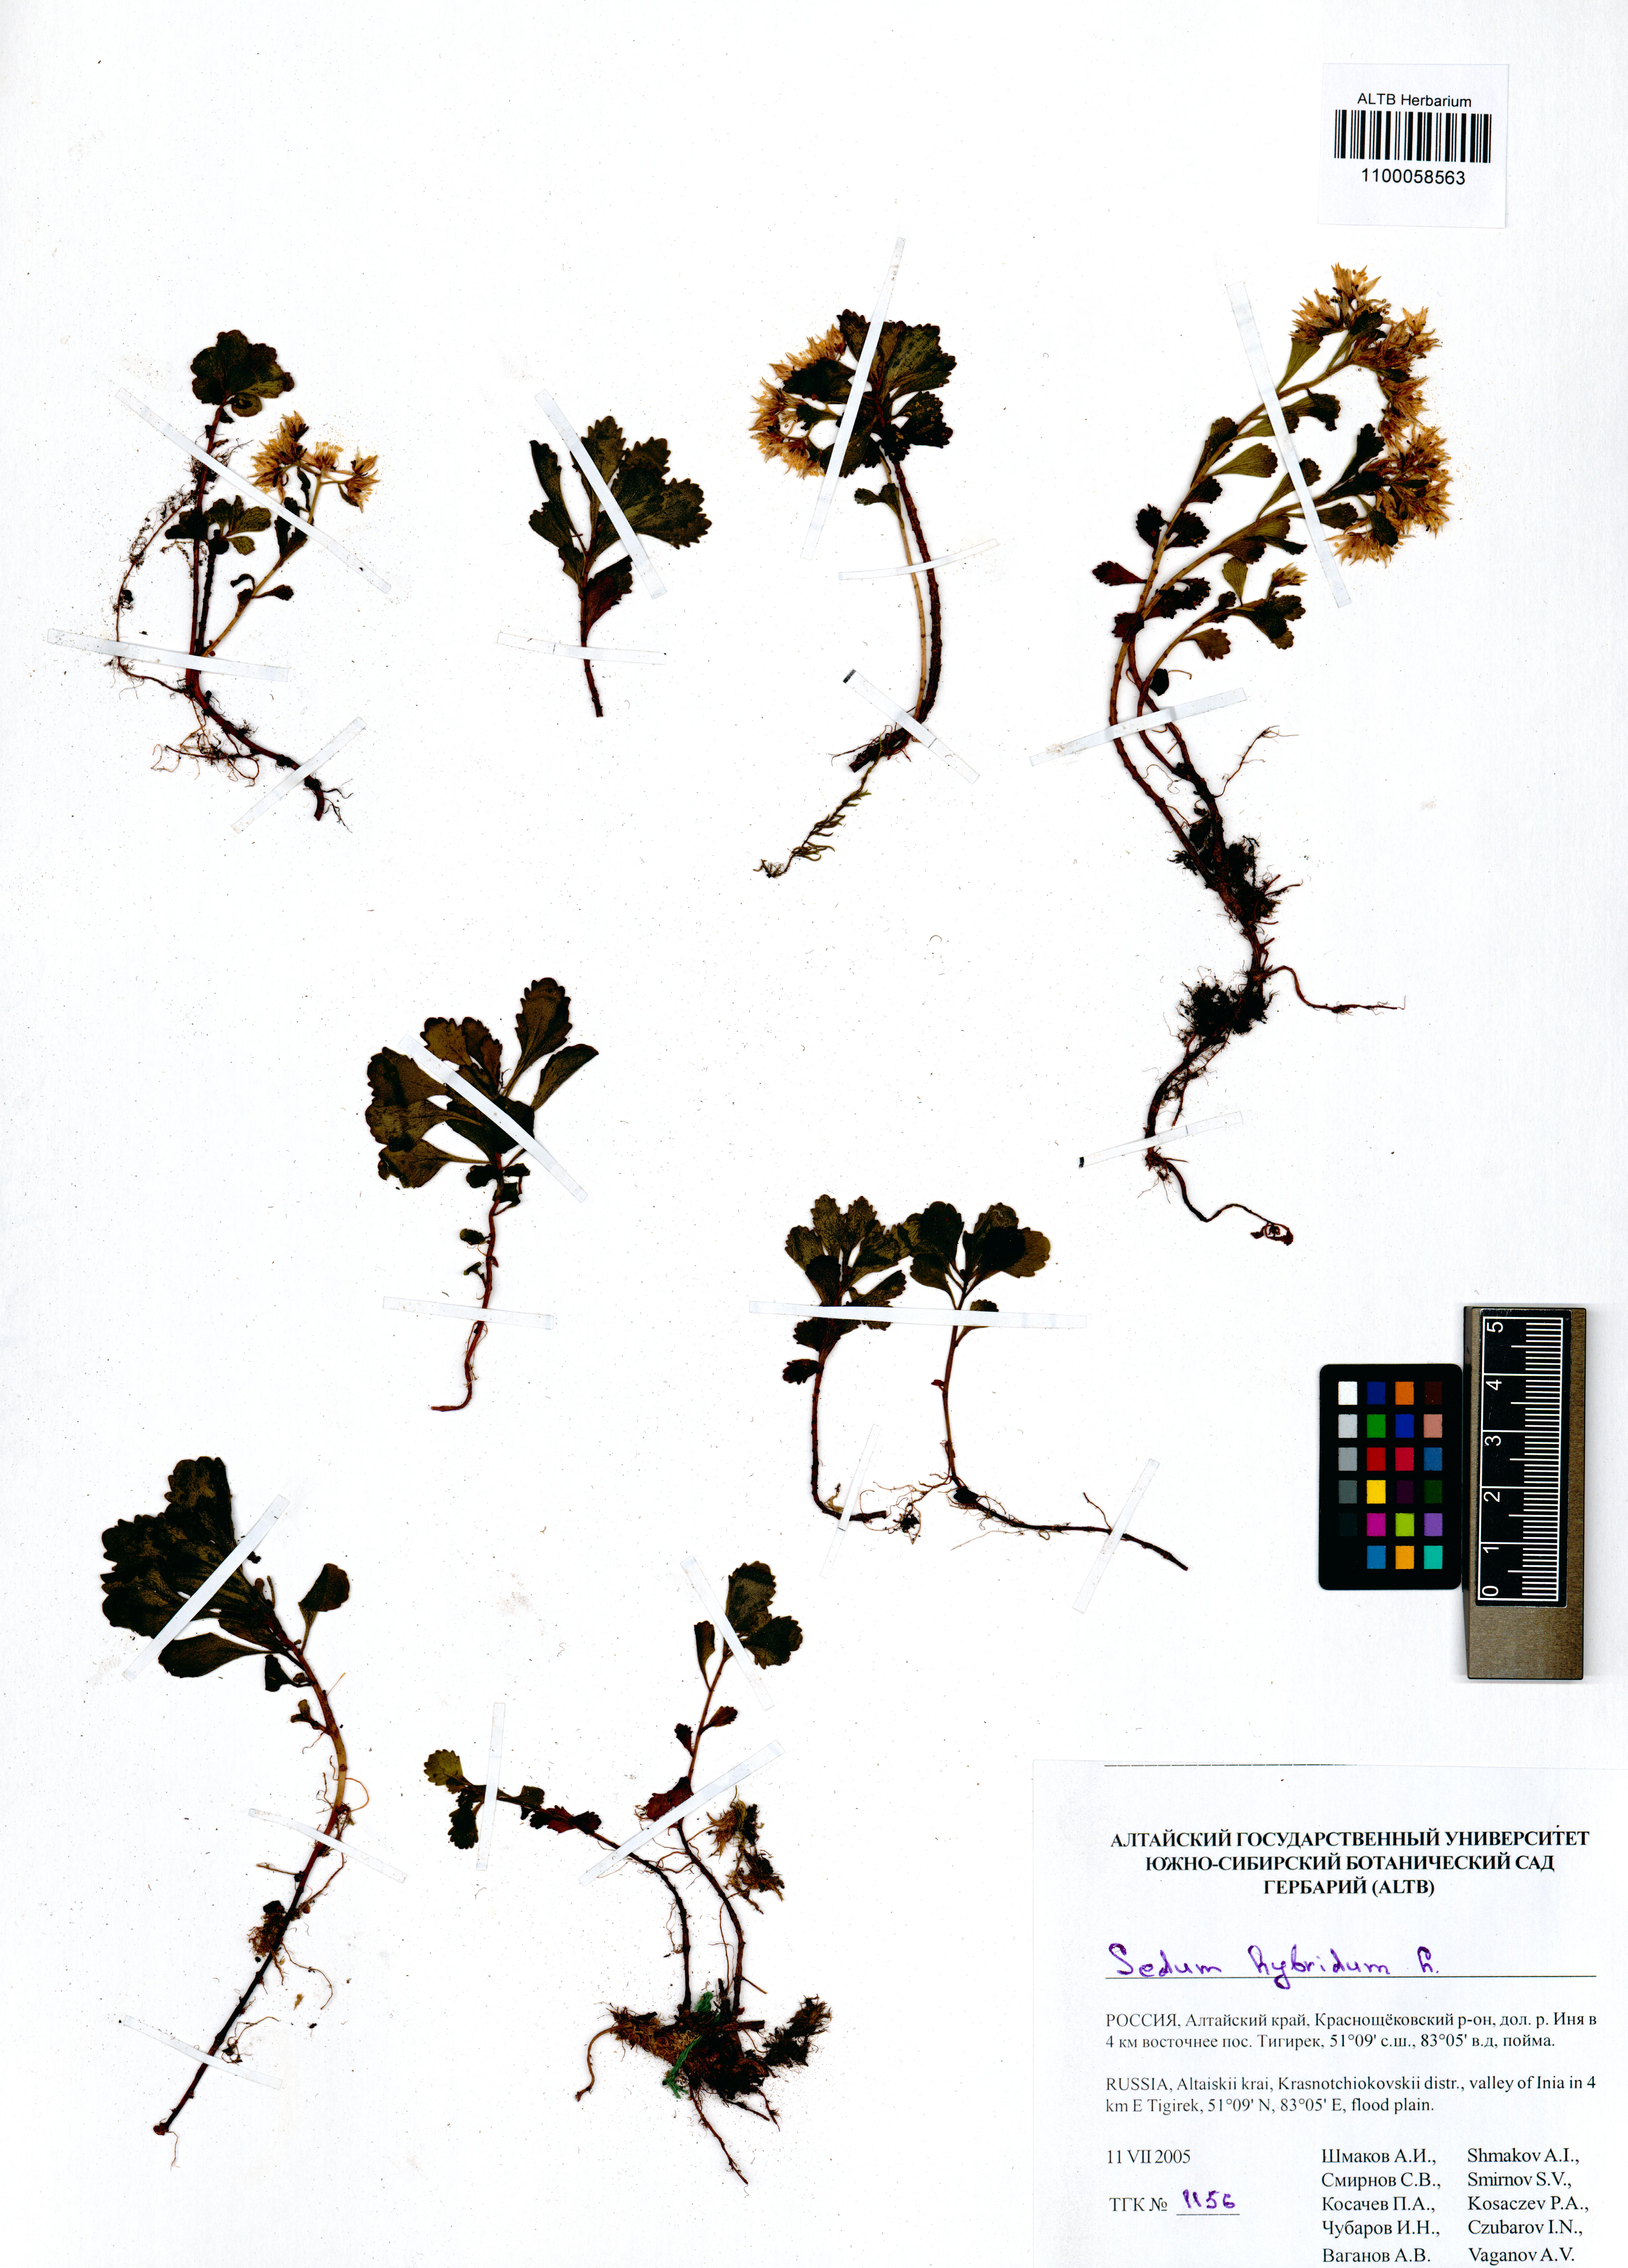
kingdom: Plantae
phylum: Tracheophyta
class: Magnoliopsida
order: Saxifragales
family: Crassulaceae
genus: Phedimus
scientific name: Phedimus hybridus
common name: Hybrid stonecrop
